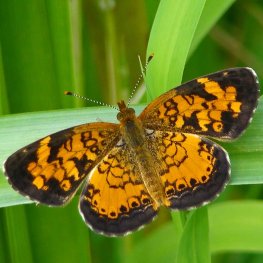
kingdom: Animalia
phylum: Arthropoda
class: Insecta
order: Lepidoptera
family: Nymphalidae
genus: Phyciodes
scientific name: Phyciodes tharos
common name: Northern Crescent
